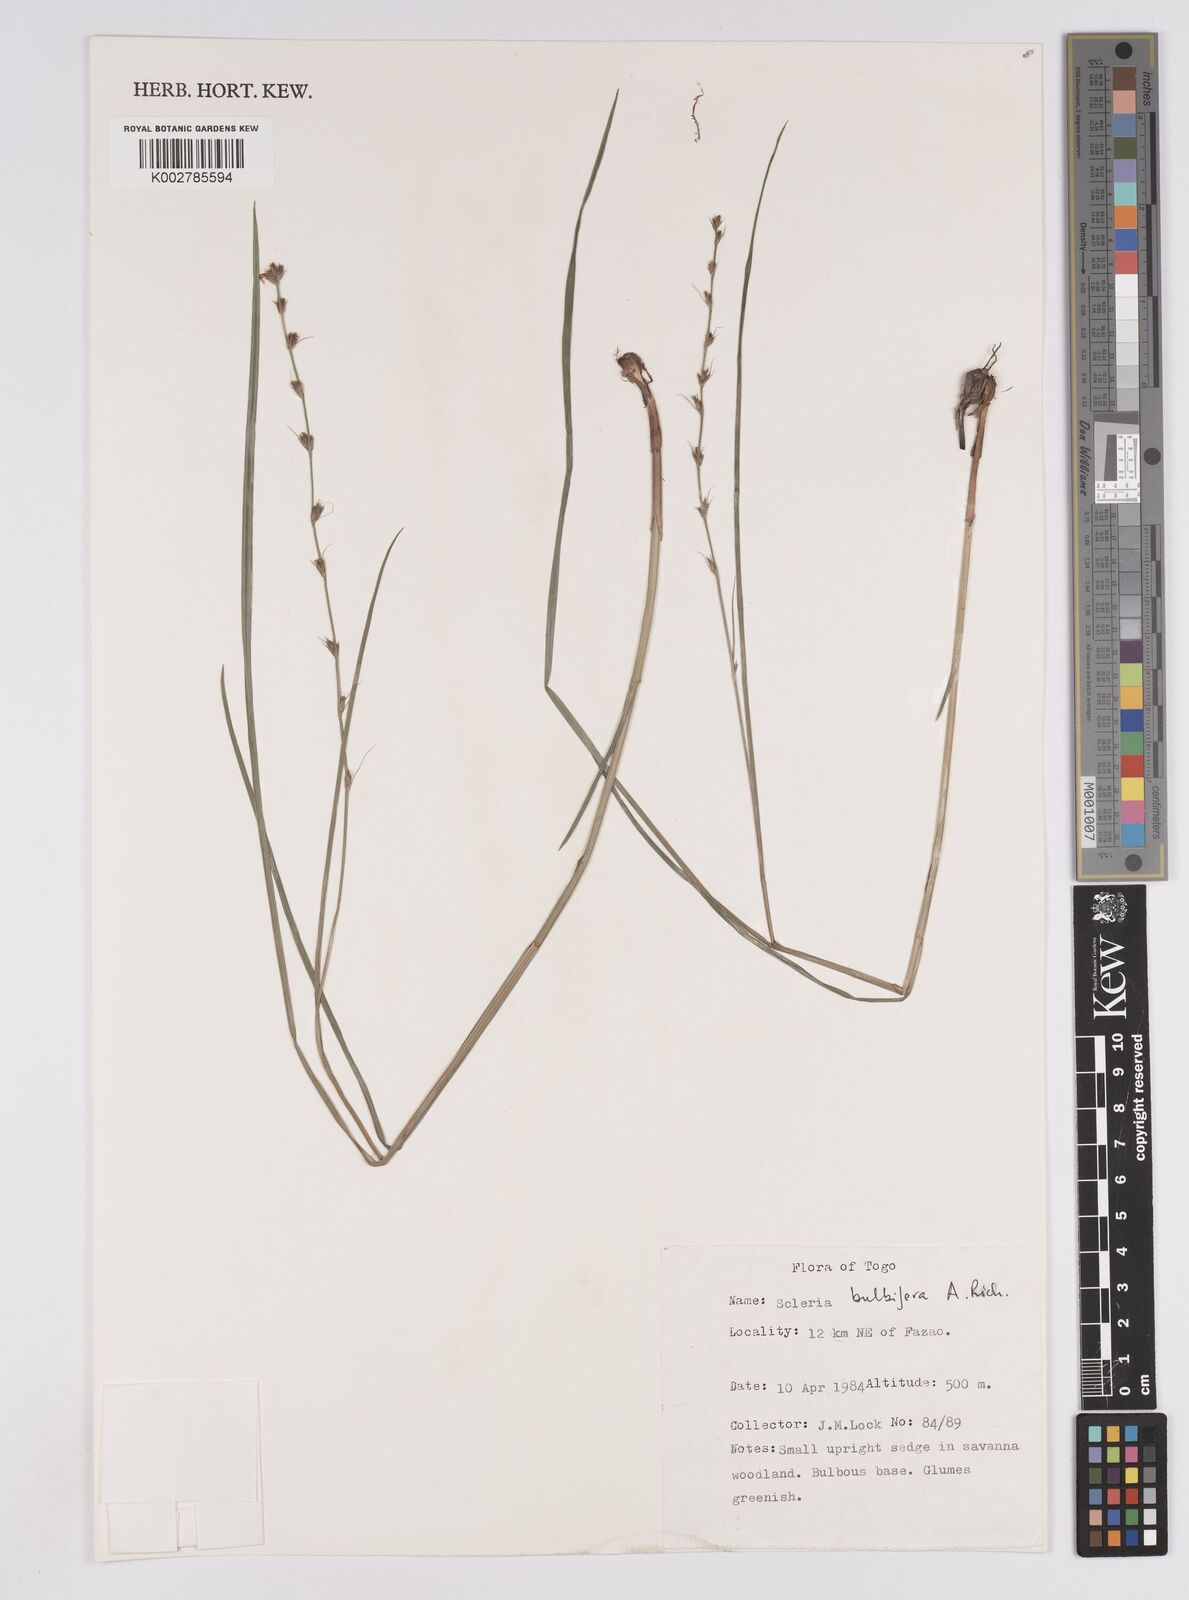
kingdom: Plantae
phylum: Tracheophyta
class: Liliopsida
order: Poales
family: Cyperaceae
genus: Scleria
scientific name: Scleria bulbifera
